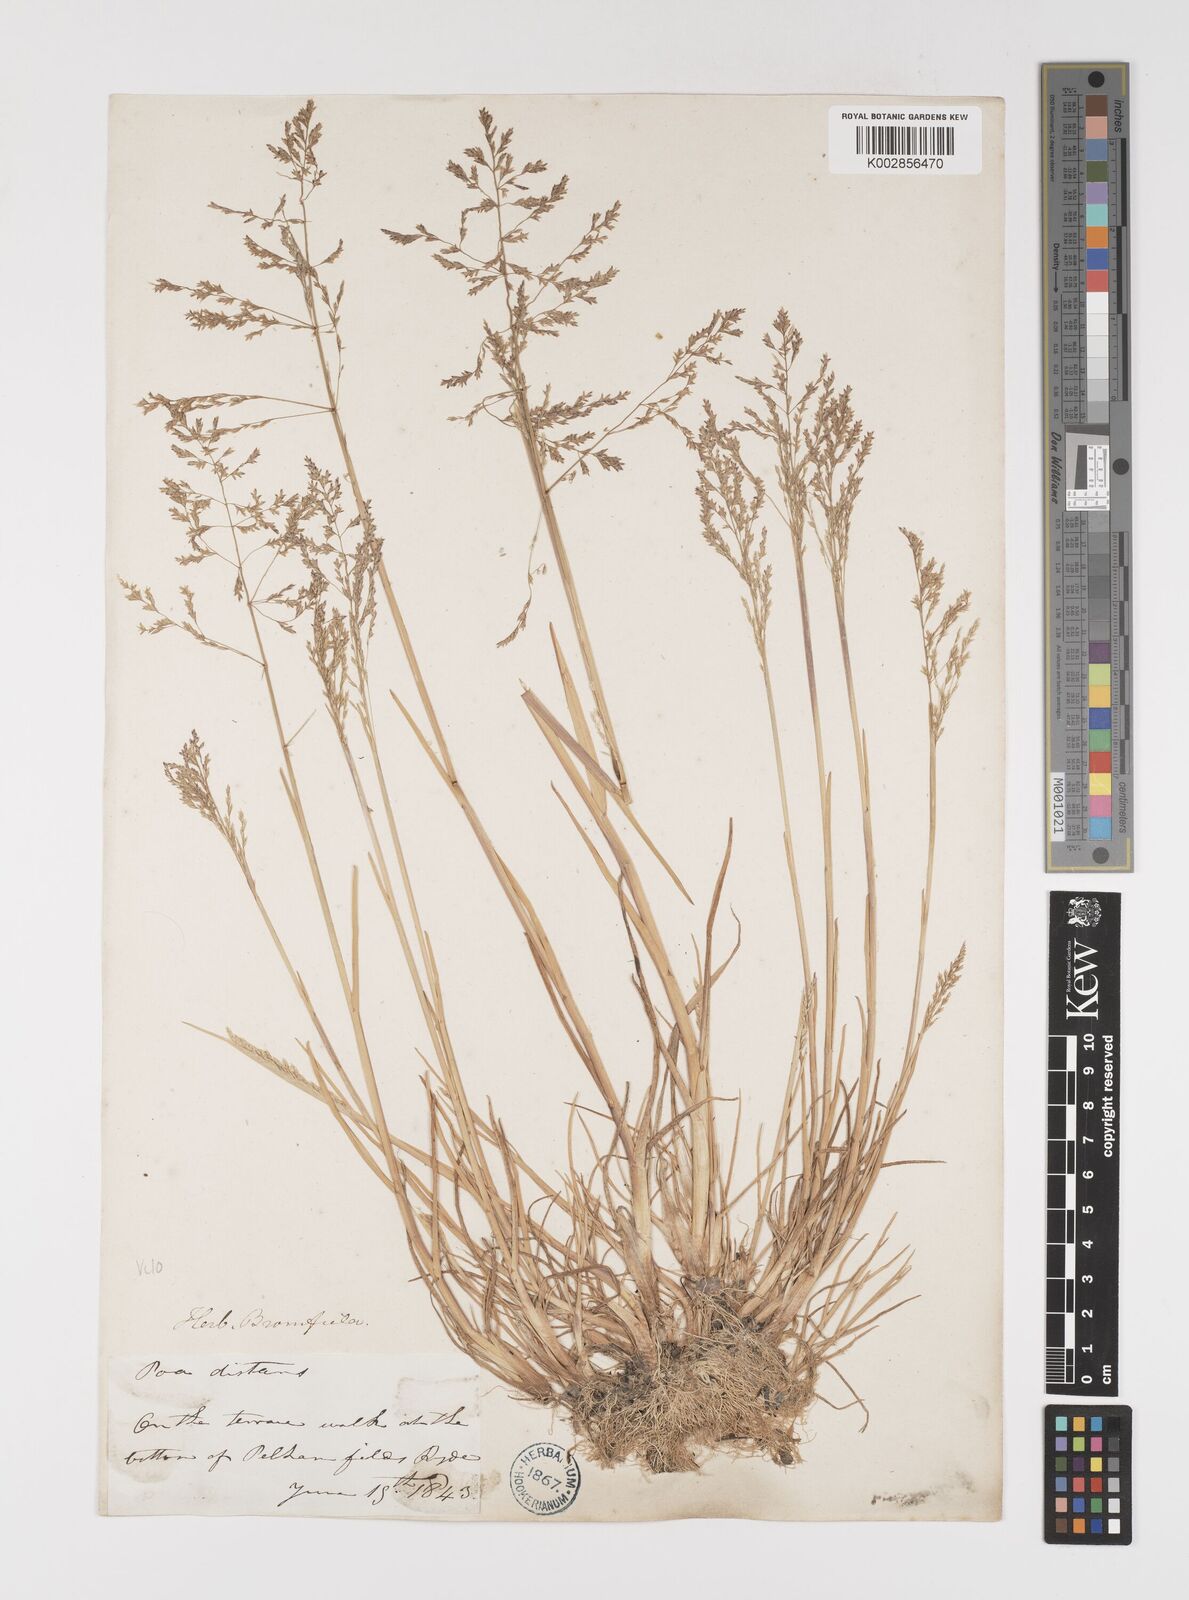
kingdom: Plantae
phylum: Tracheophyta
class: Liliopsida
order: Poales
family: Poaceae
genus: Puccinellia
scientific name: Puccinellia distans
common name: Weeping alkaligrass
